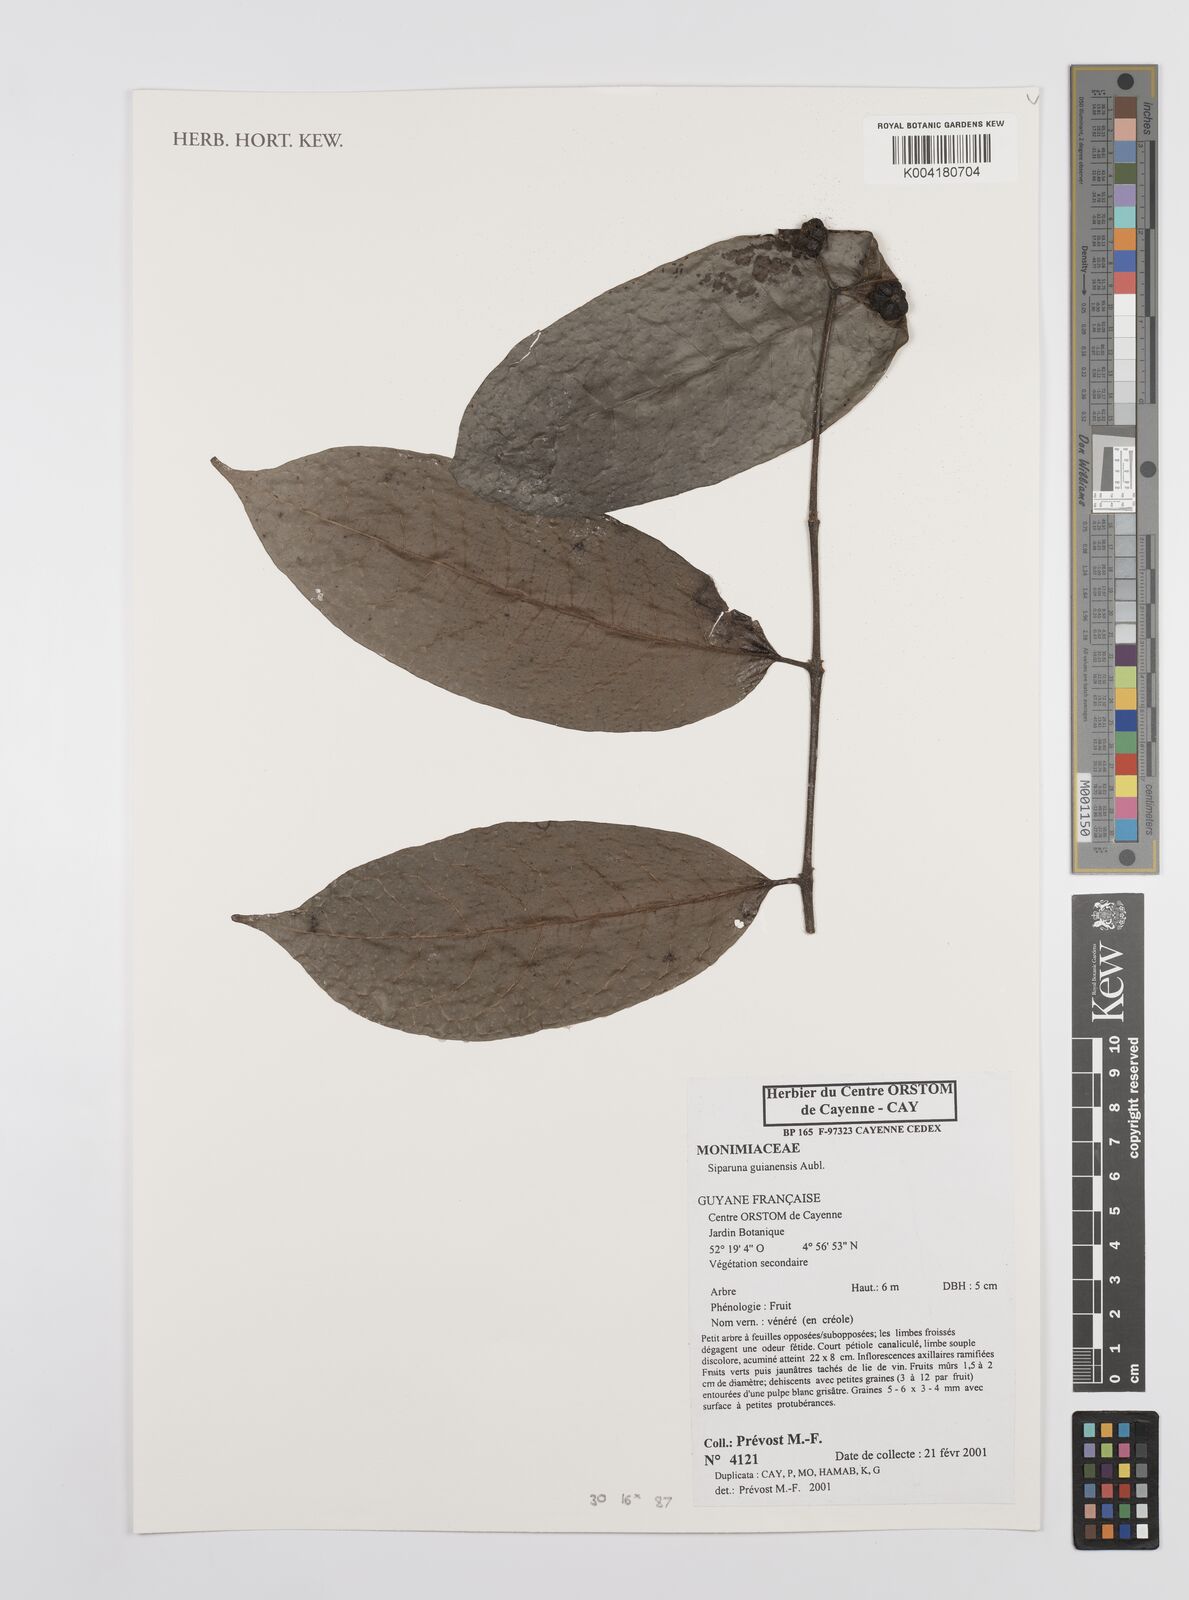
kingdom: Plantae
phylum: Tracheophyta
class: Magnoliopsida
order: Laurales
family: Siparunaceae
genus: Siparuna
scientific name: Siparuna guianensis
